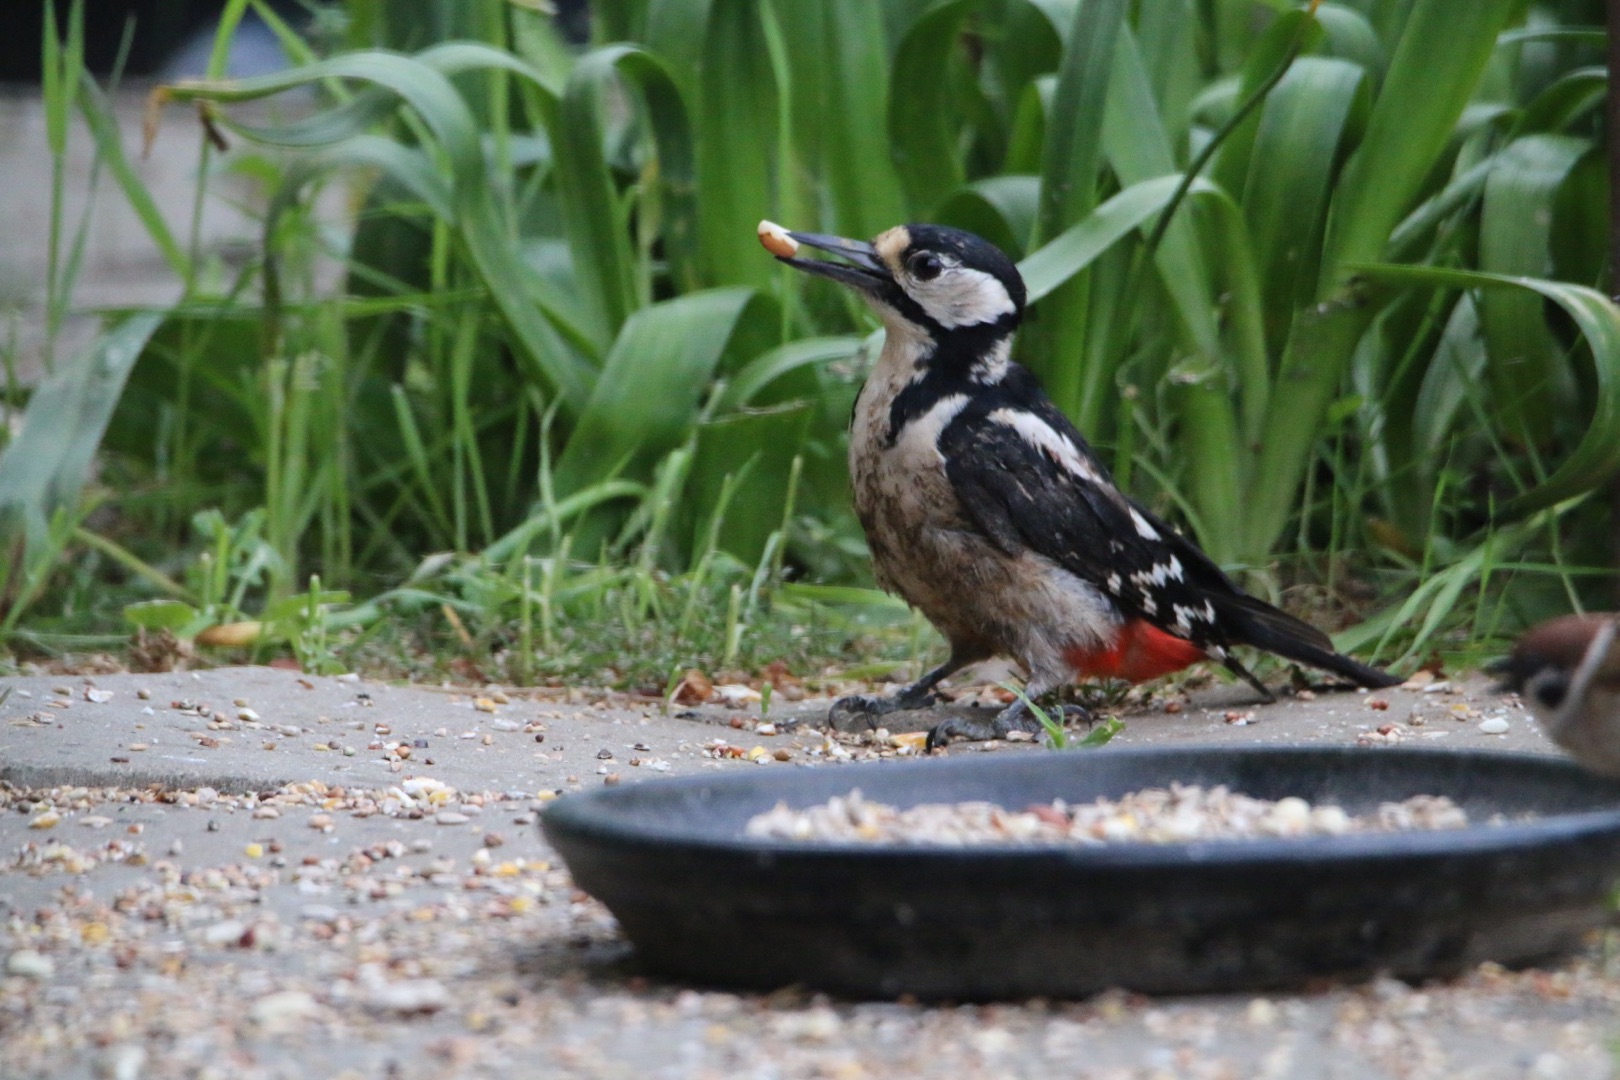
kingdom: Animalia
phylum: Chordata
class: Aves
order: Piciformes
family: Picidae
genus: Dendrocopos
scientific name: Dendrocopos major
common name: Stor flagspætte
